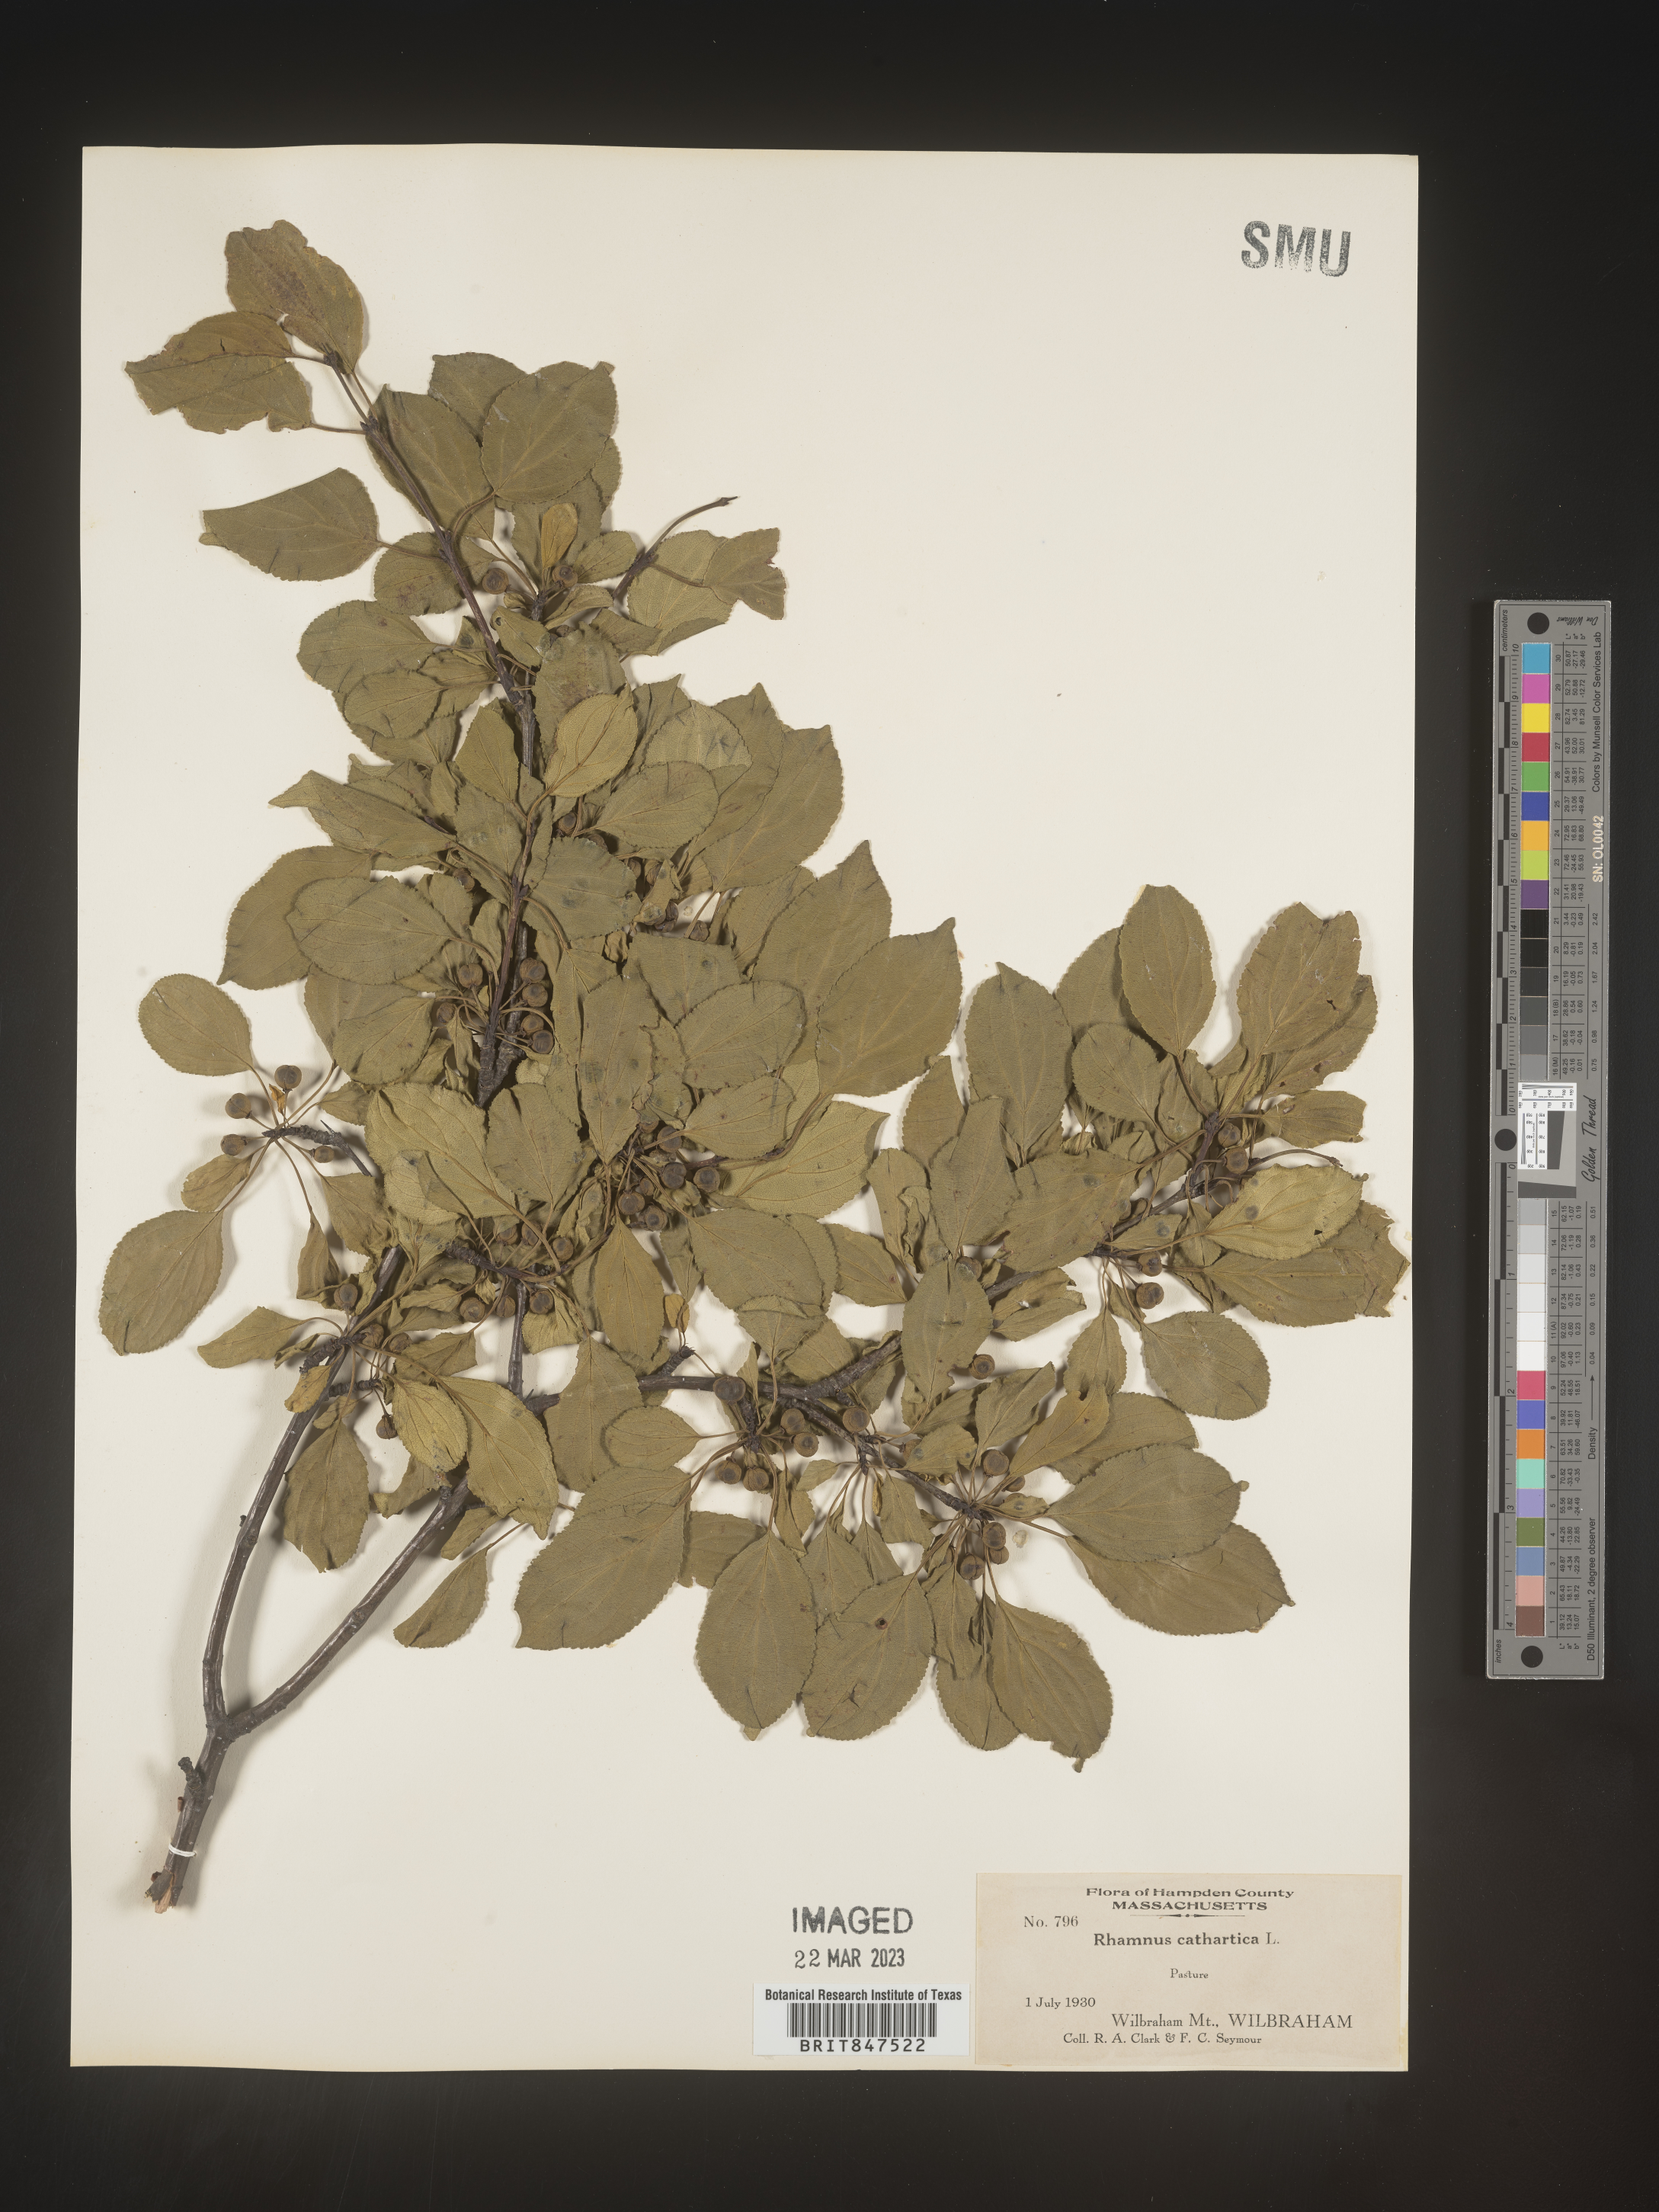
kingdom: Plantae
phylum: Tracheophyta
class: Magnoliopsida
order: Rosales
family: Rhamnaceae
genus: Rhamnus
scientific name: Rhamnus cathartica
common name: Common buckthorn
